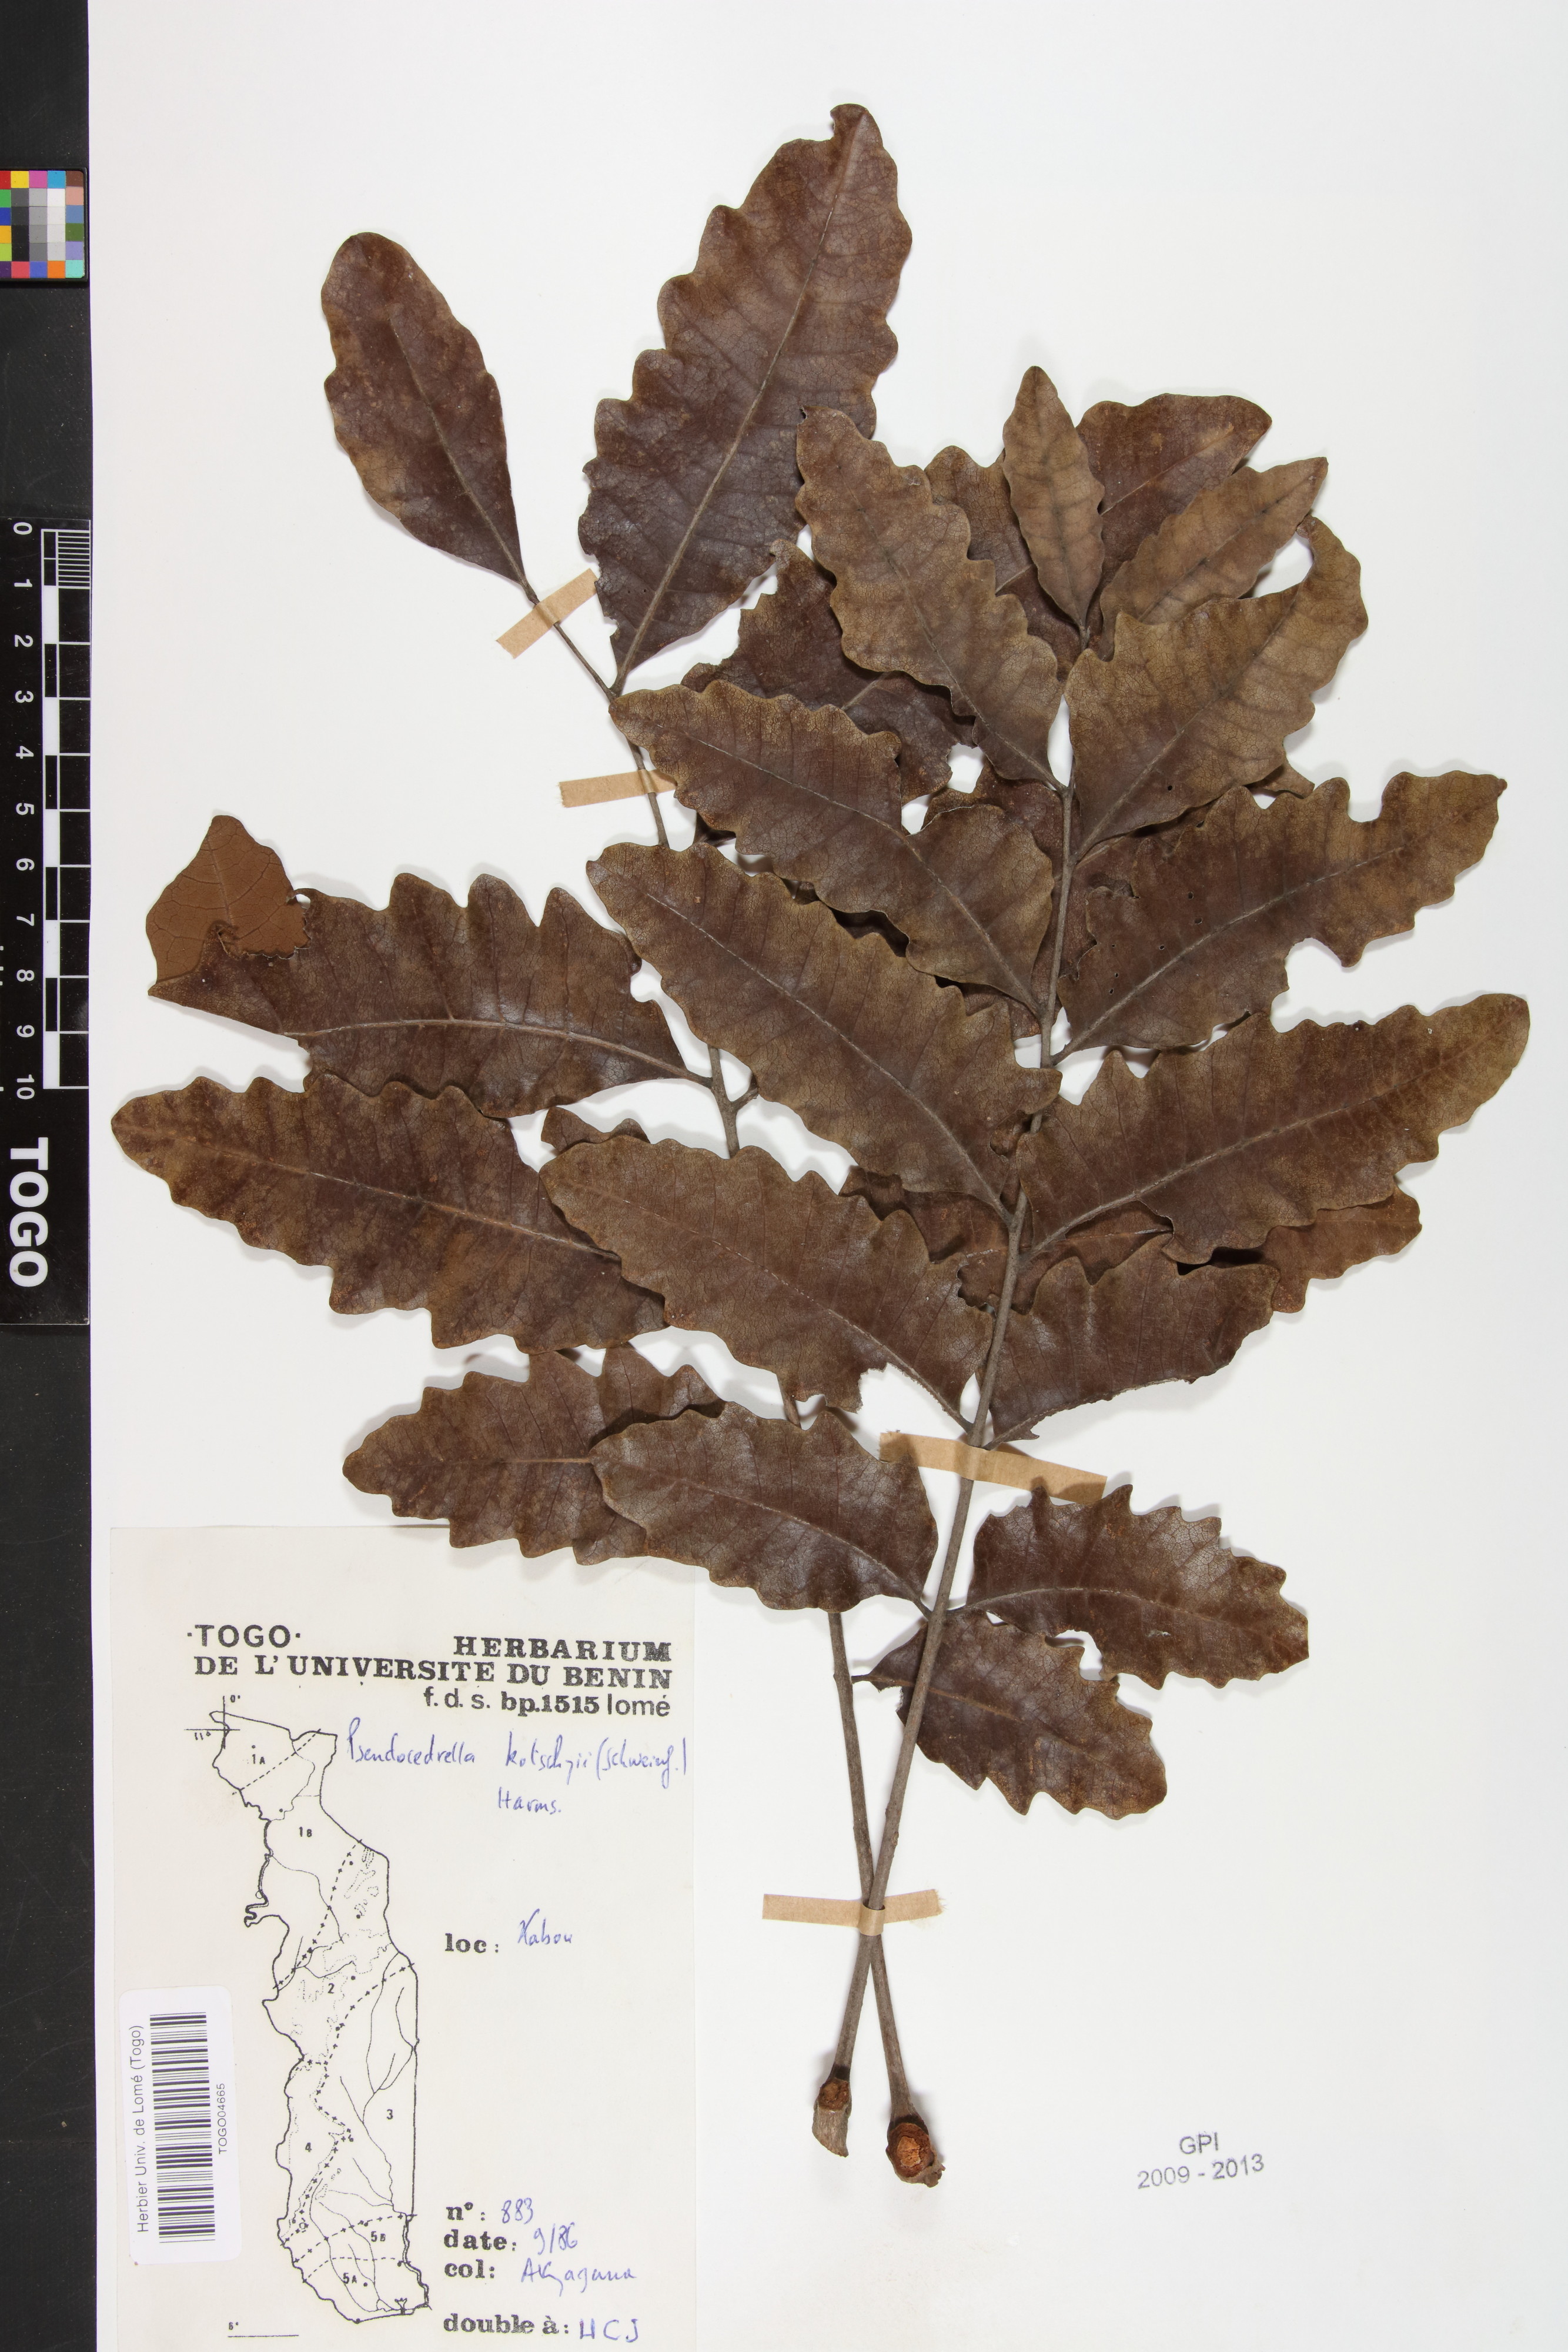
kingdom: Plantae
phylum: Tracheophyta
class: Magnoliopsida
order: Sapindales
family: Meliaceae
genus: Pseudocedrela
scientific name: Pseudocedrela kotschyi
